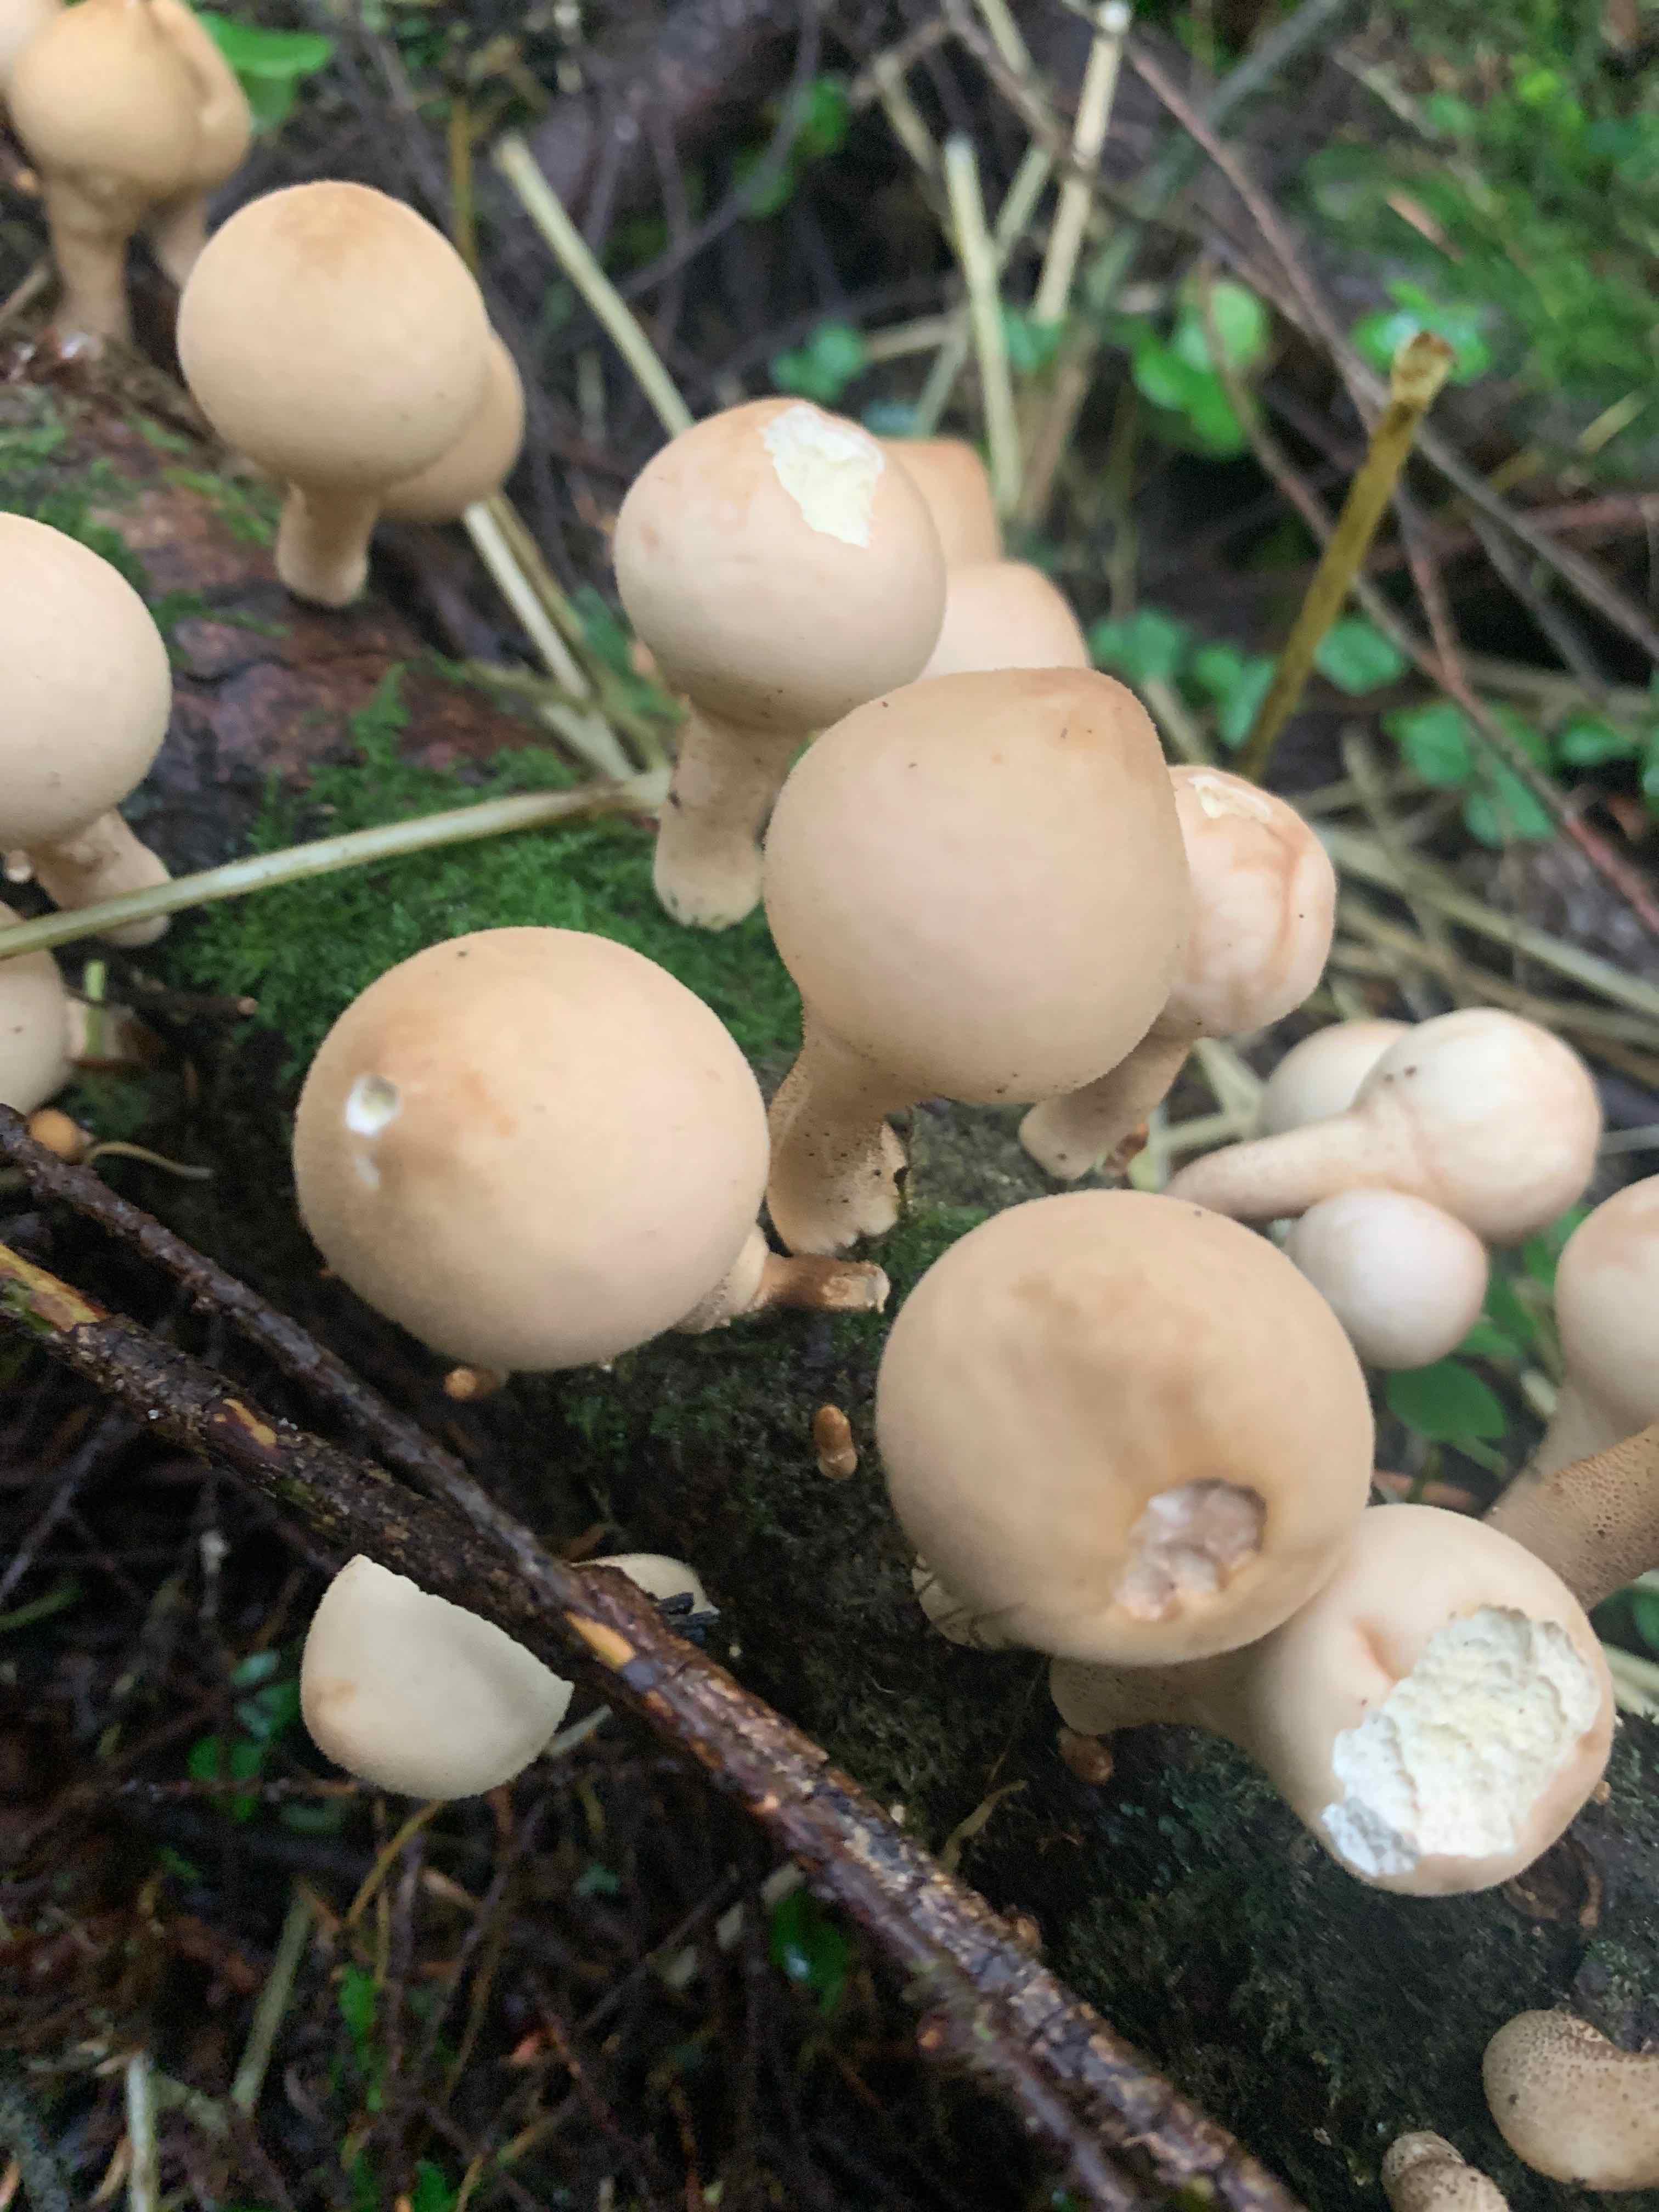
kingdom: Fungi
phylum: Basidiomycota
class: Agaricomycetes
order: Agaricales
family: Lycoperdaceae
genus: Apioperdon
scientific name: Apioperdon pyriforme
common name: pære-støvbold
